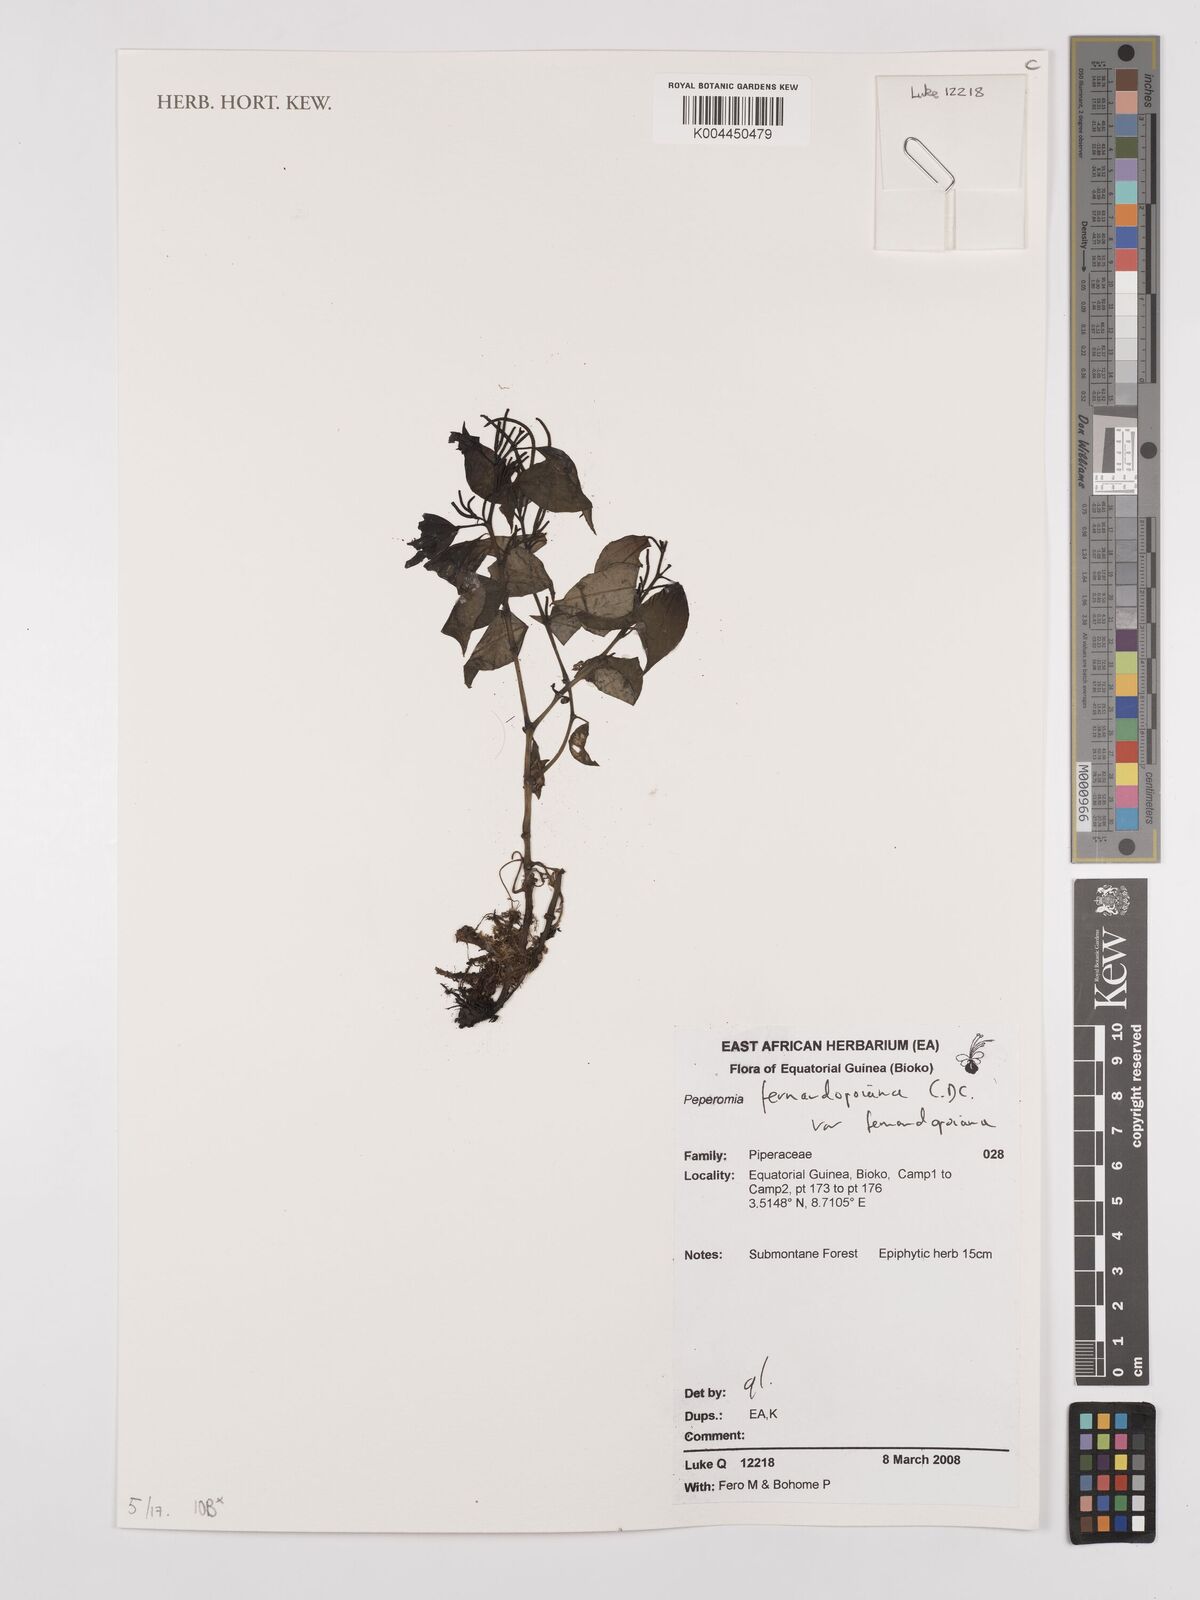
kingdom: Plantae
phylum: Tracheophyta
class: Magnoliopsida
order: Piperales
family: Piperaceae
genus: Peperomia
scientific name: Peperomia fernandopoiana
